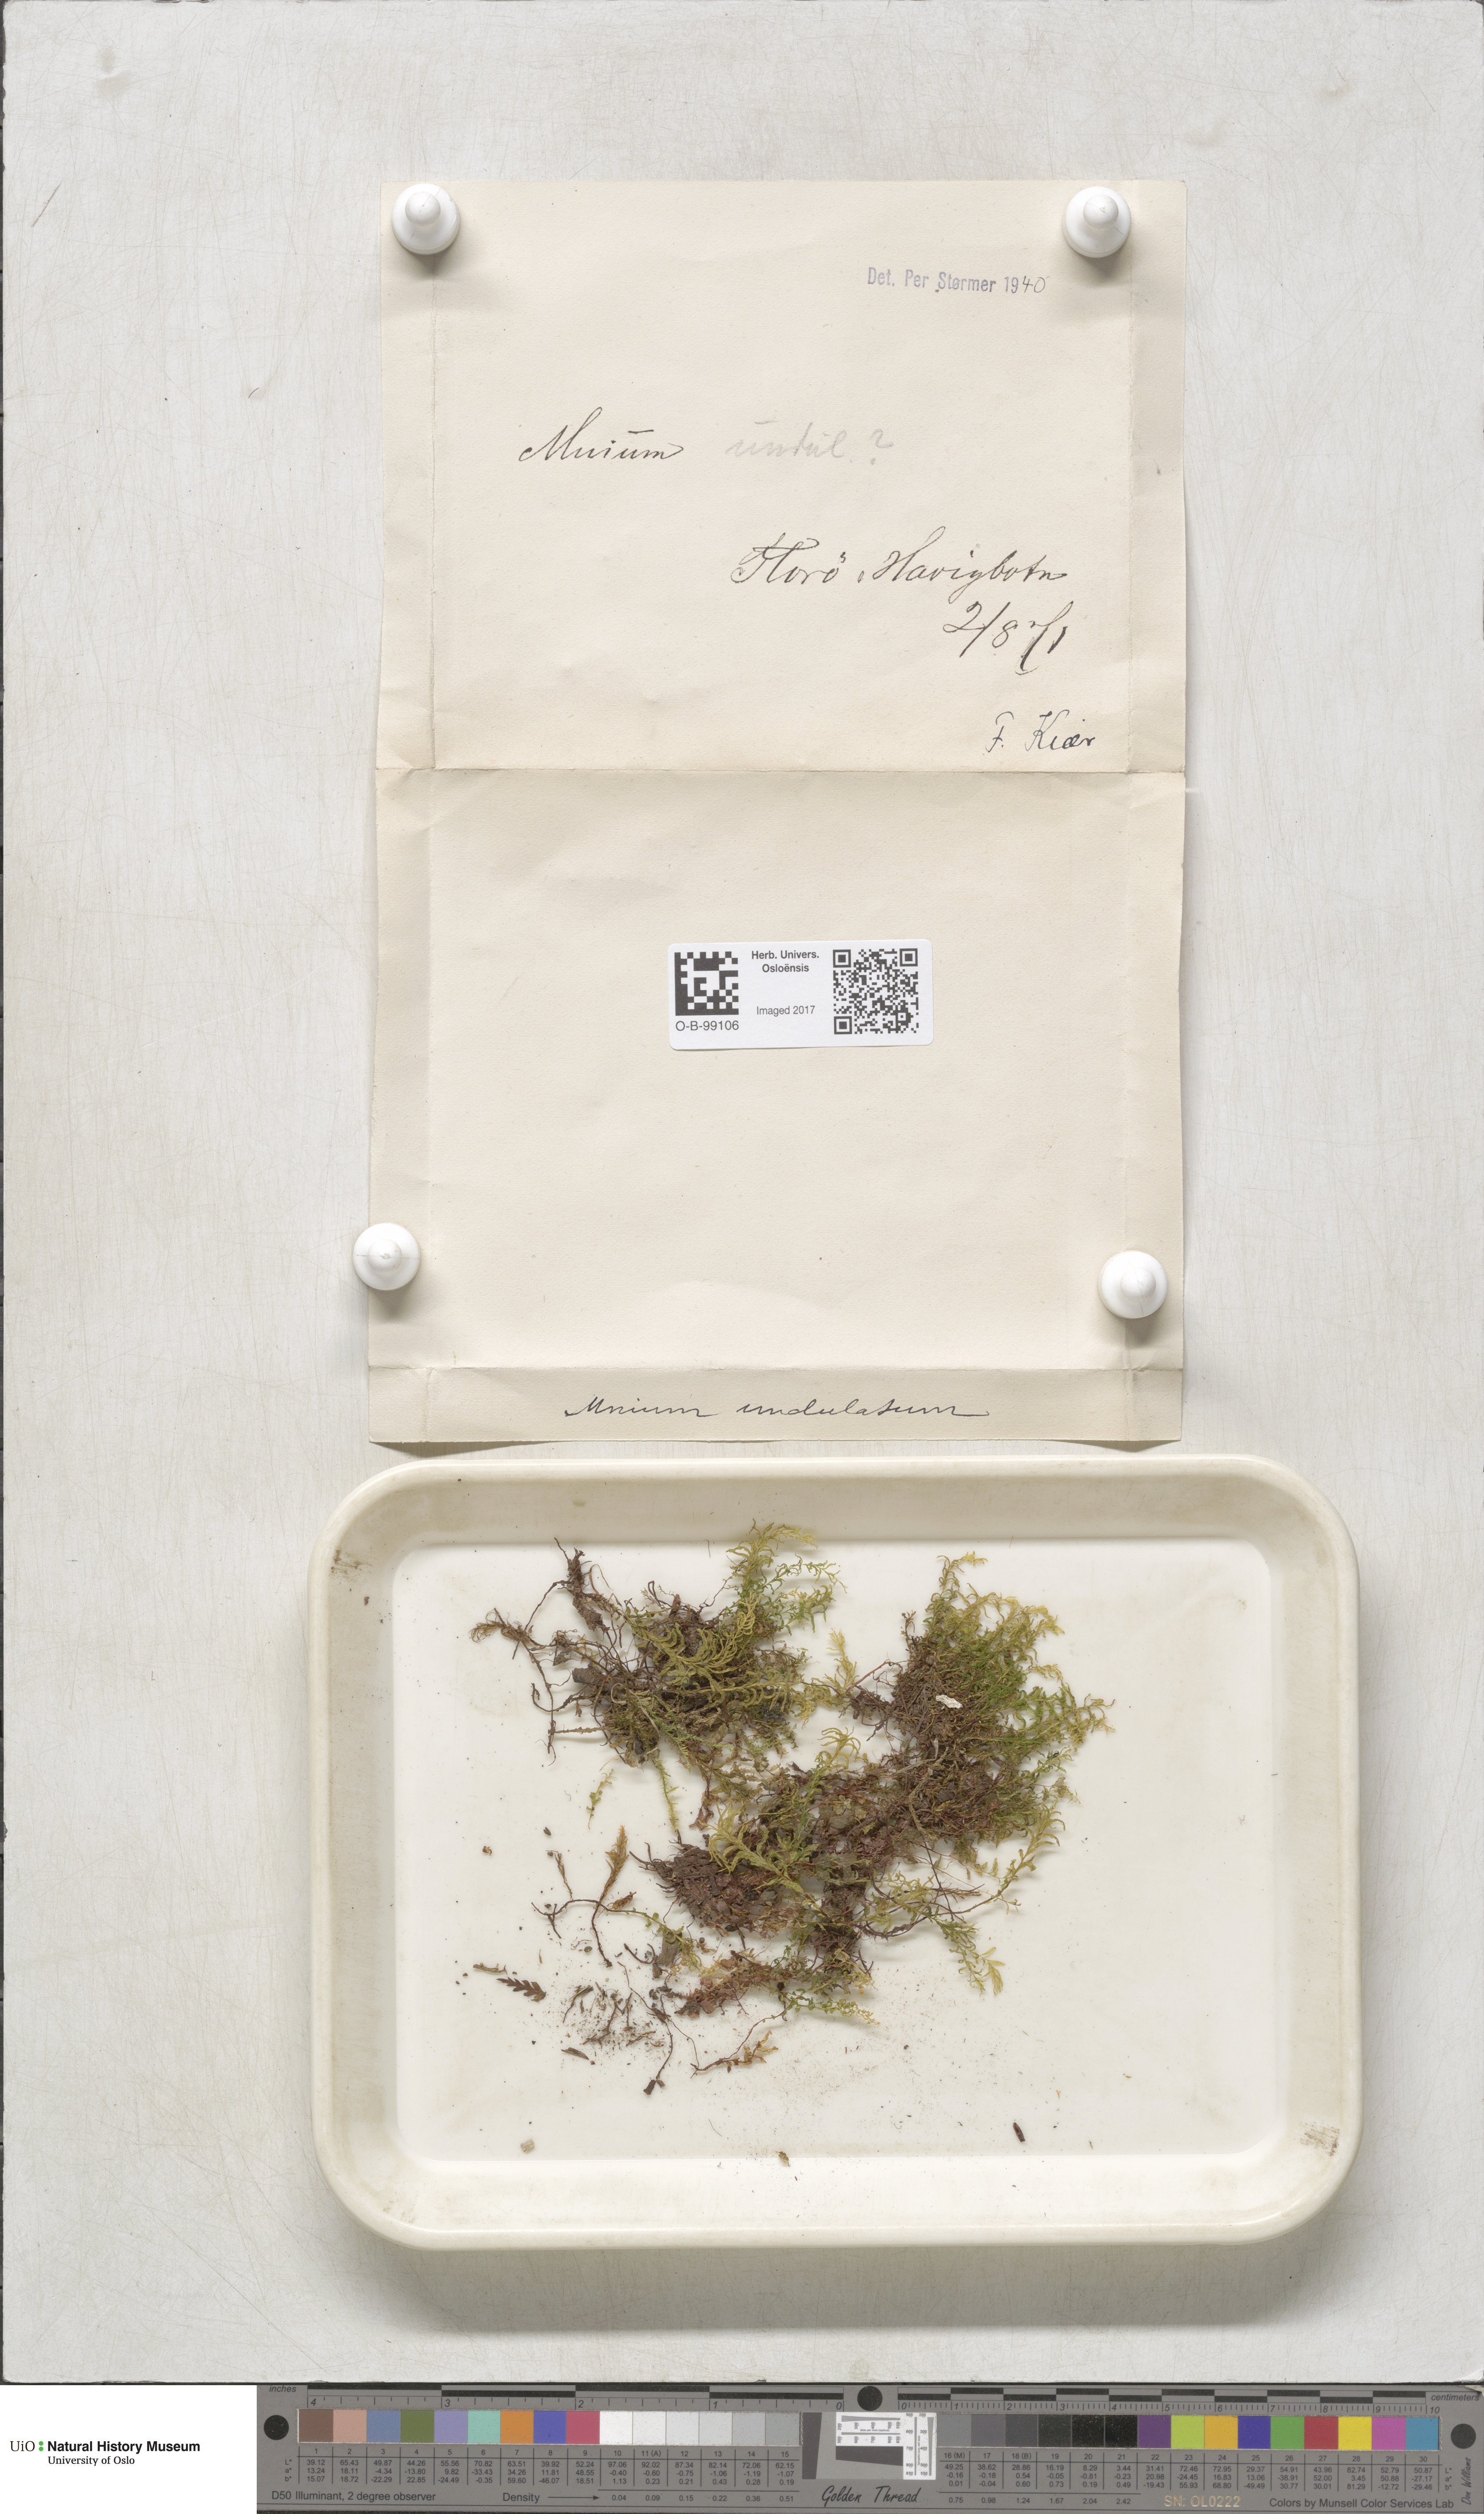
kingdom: Plantae
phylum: Bryophyta
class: Bryopsida
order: Bryales
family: Mniaceae
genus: Plagiomnium
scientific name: Plagiomnium undulatum
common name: Hart's-tongue thyme-moss
